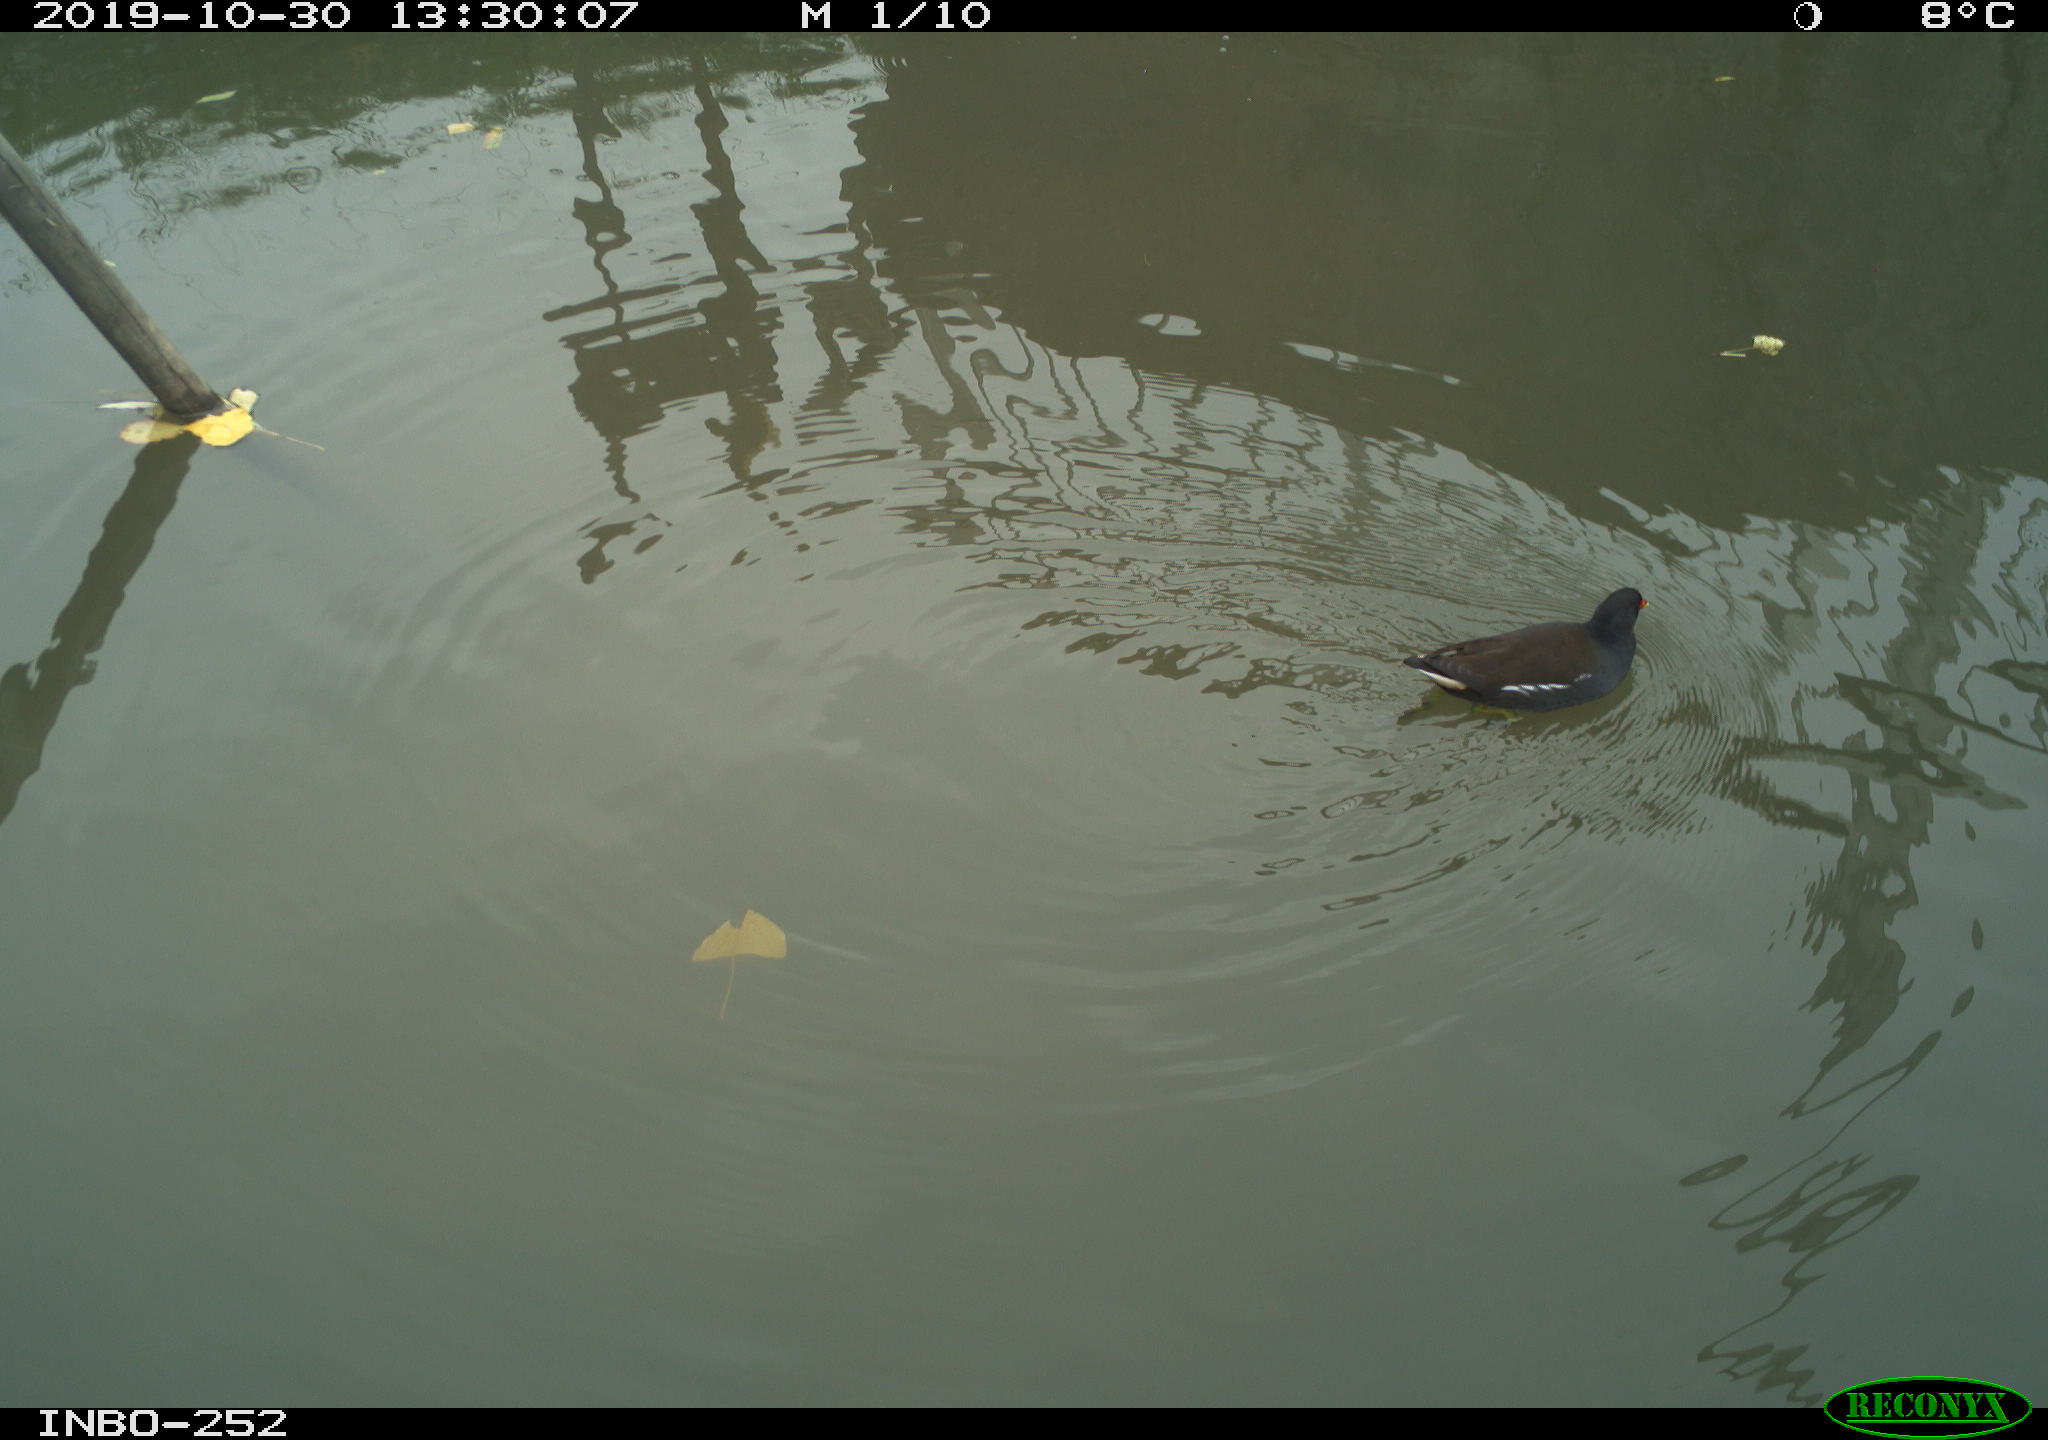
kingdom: Animalia
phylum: Chordata
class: Aves
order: Gruiformes
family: Rallidae
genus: Gallinula
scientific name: Gallinula chloropus
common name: Common moorhen
